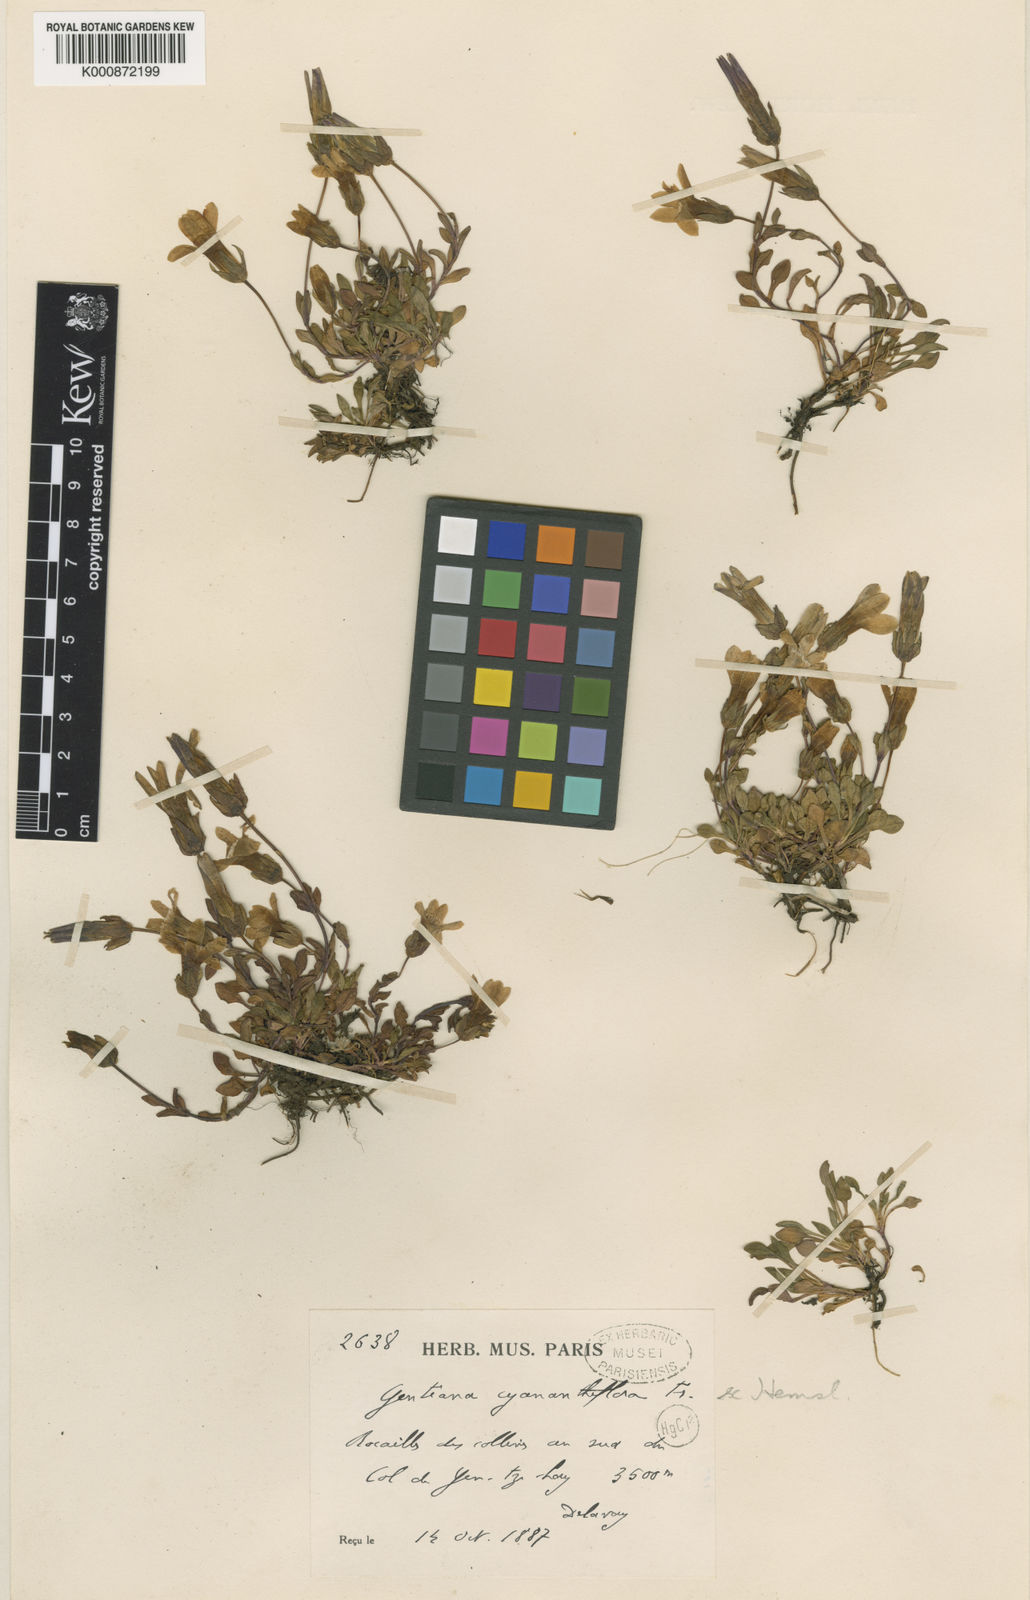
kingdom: Plantae
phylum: Tracheophyta
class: Magnoliopsida
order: Gentianales
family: Gentianaceae
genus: Comastoma
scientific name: Comastoma cyananthiflorum
